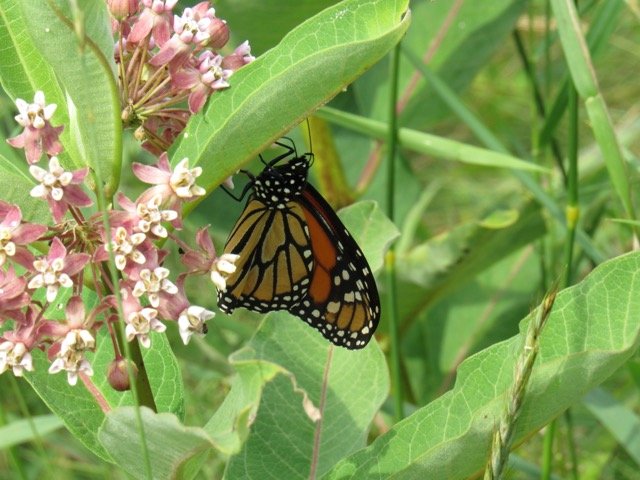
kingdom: Animalia
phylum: Arthropoda
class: Insecta
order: Lepidoptera
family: Nymphalidae
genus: Danaus
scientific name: Danaus plexippus
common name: Monarch
